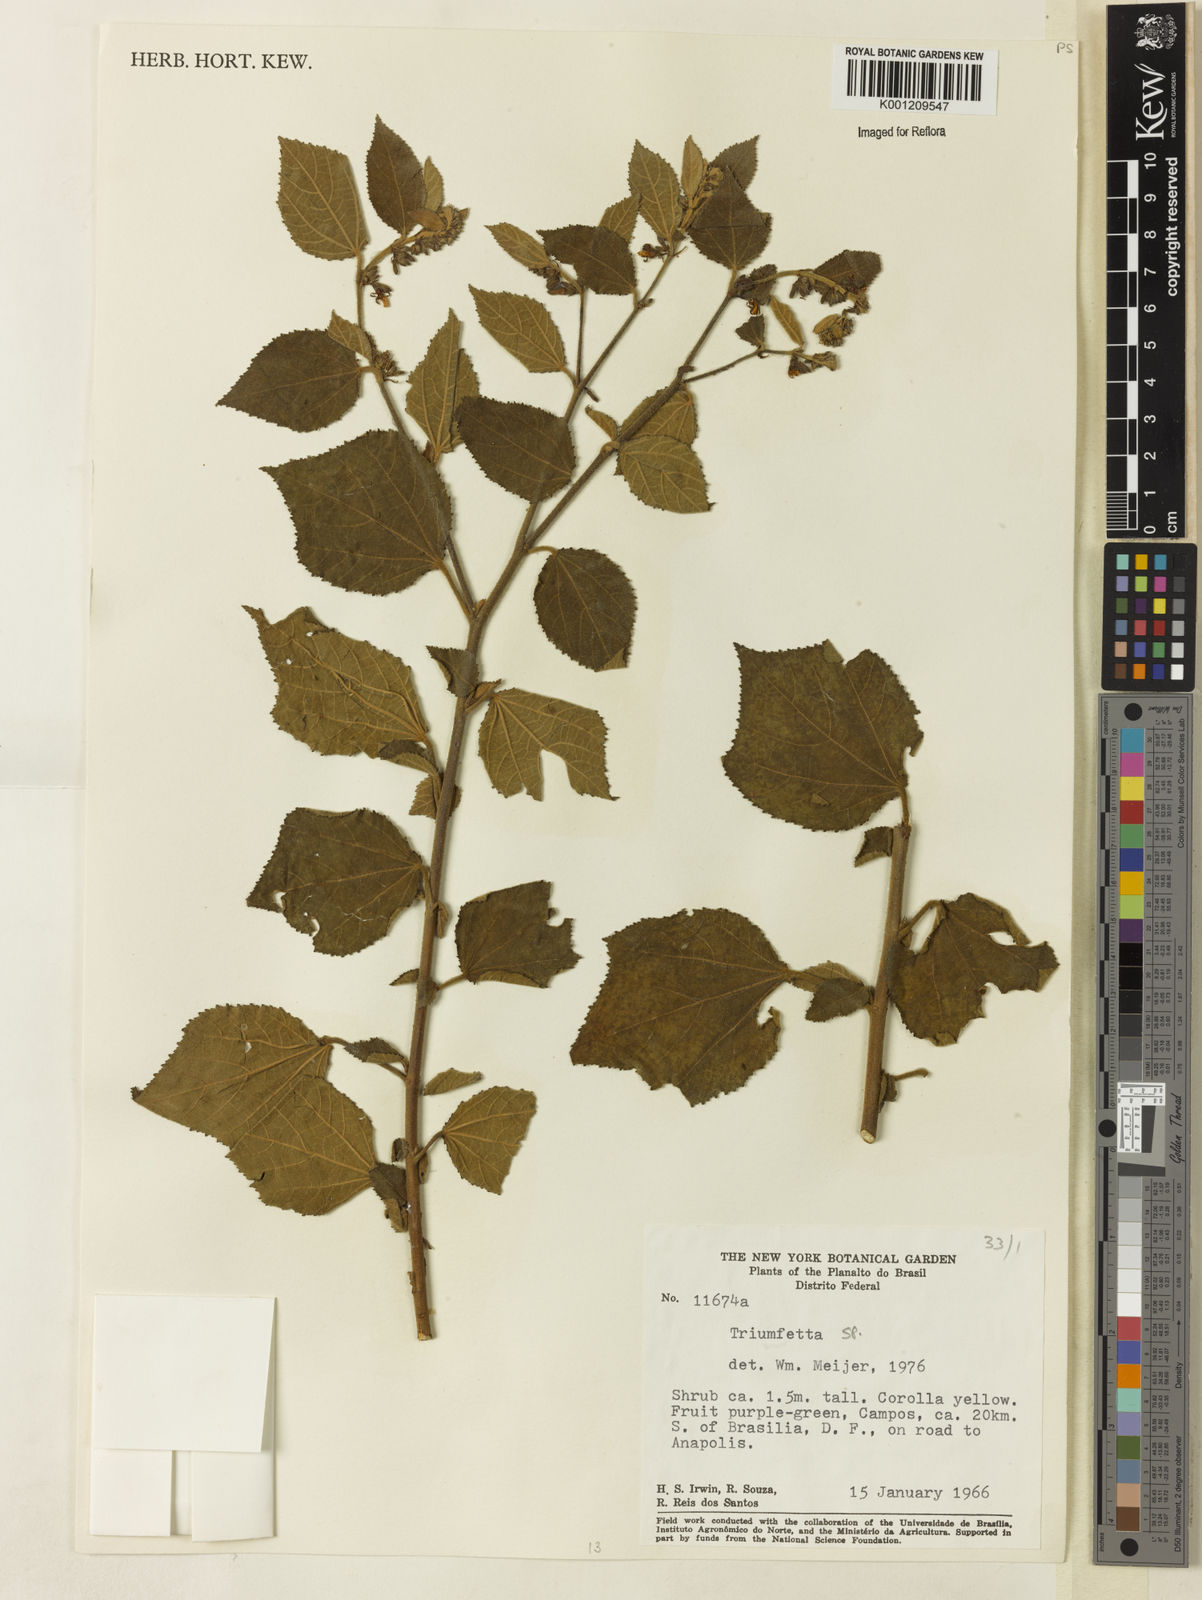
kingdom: Plantae
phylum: Tracheophyta
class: Magnoliopsida
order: Malvales
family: Malvaceae
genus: Triumfetta
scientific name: Triumfetta
